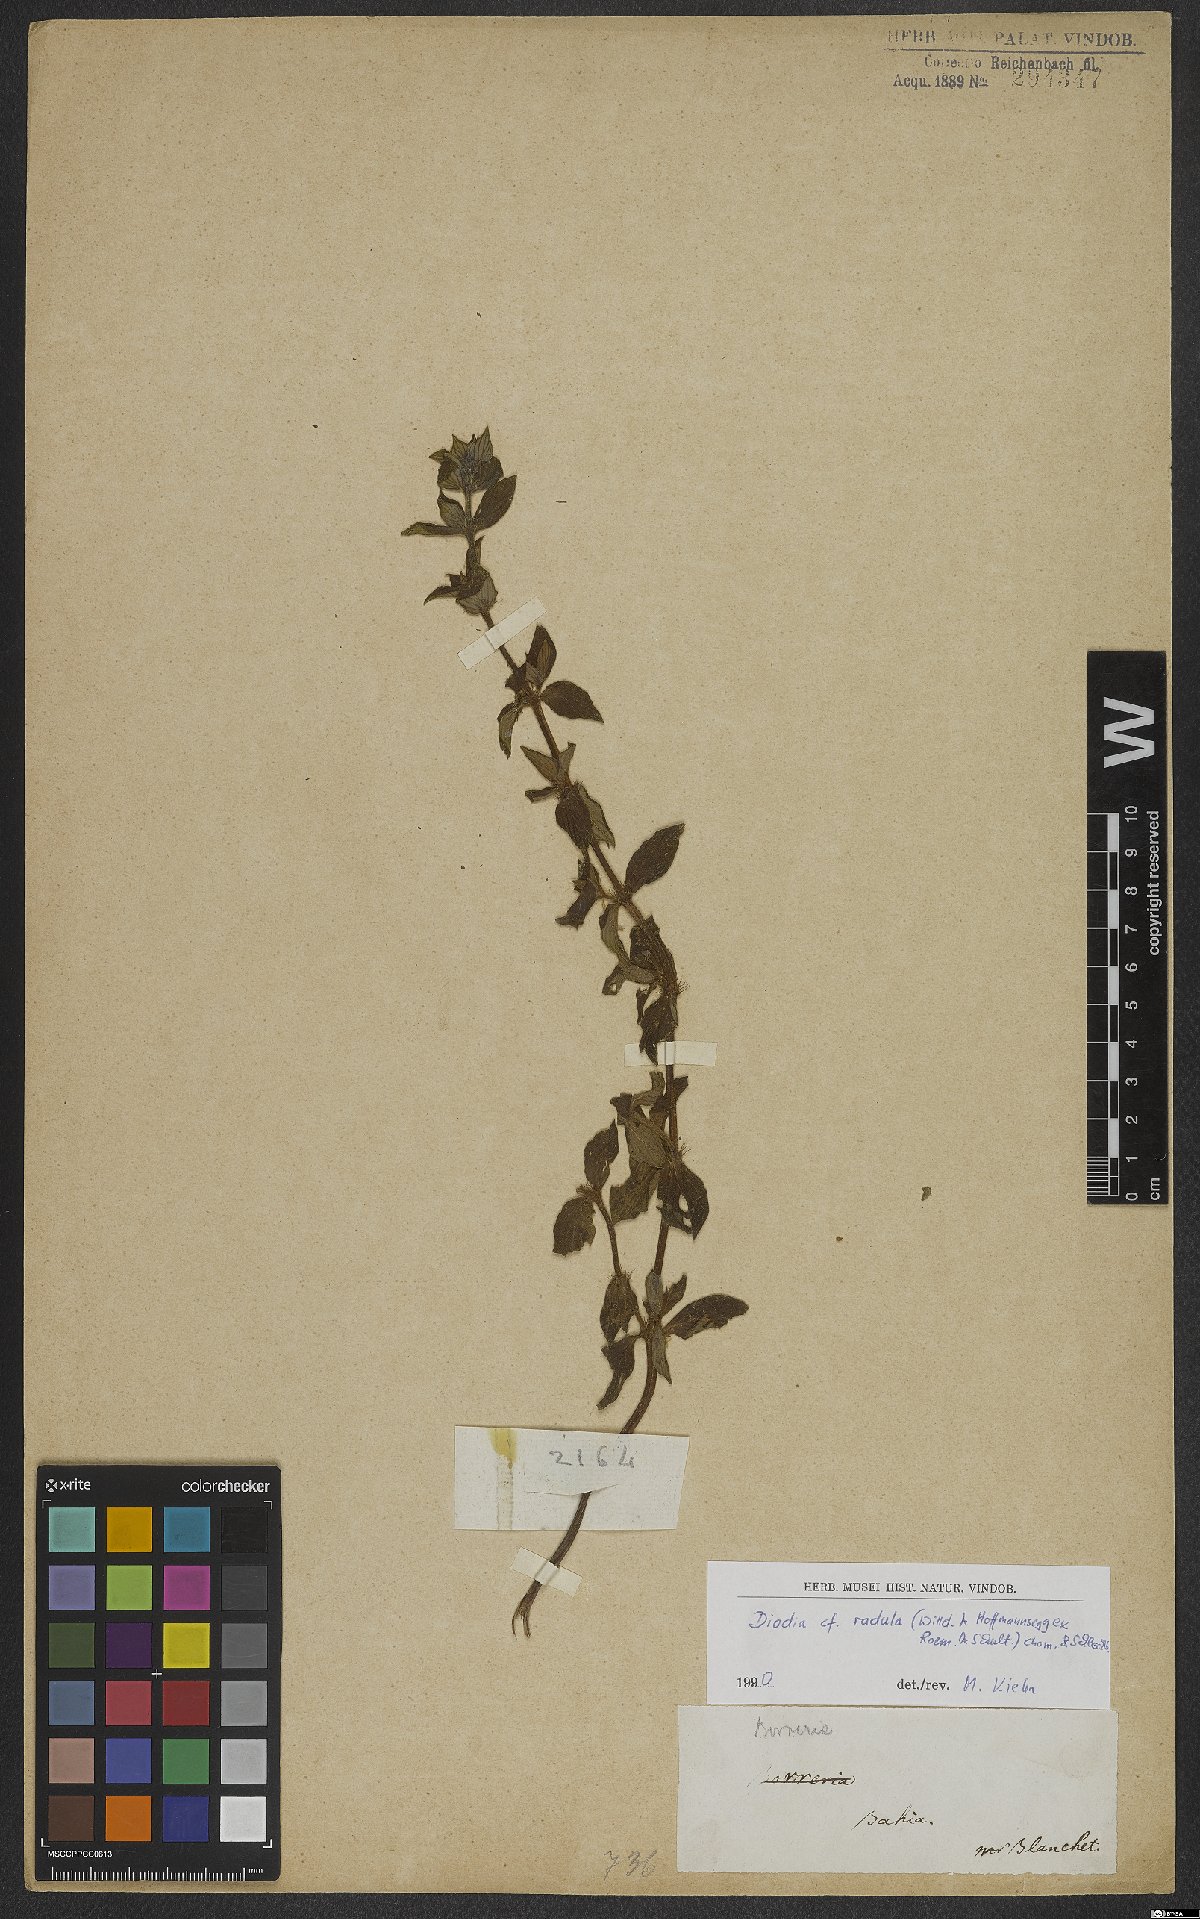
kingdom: Plantae
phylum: Tracheophyta
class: Magnoliopsida
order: Gentianales
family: Rubiaceae
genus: Hexasepalum
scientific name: Hexasepalum radulum
